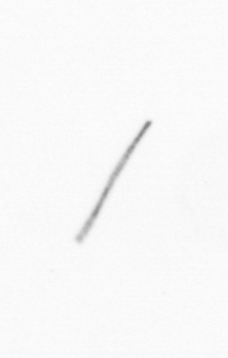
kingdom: Chromista
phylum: Ochrophyta
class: Bacillariophyceae
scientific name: Bacillariophyceae
